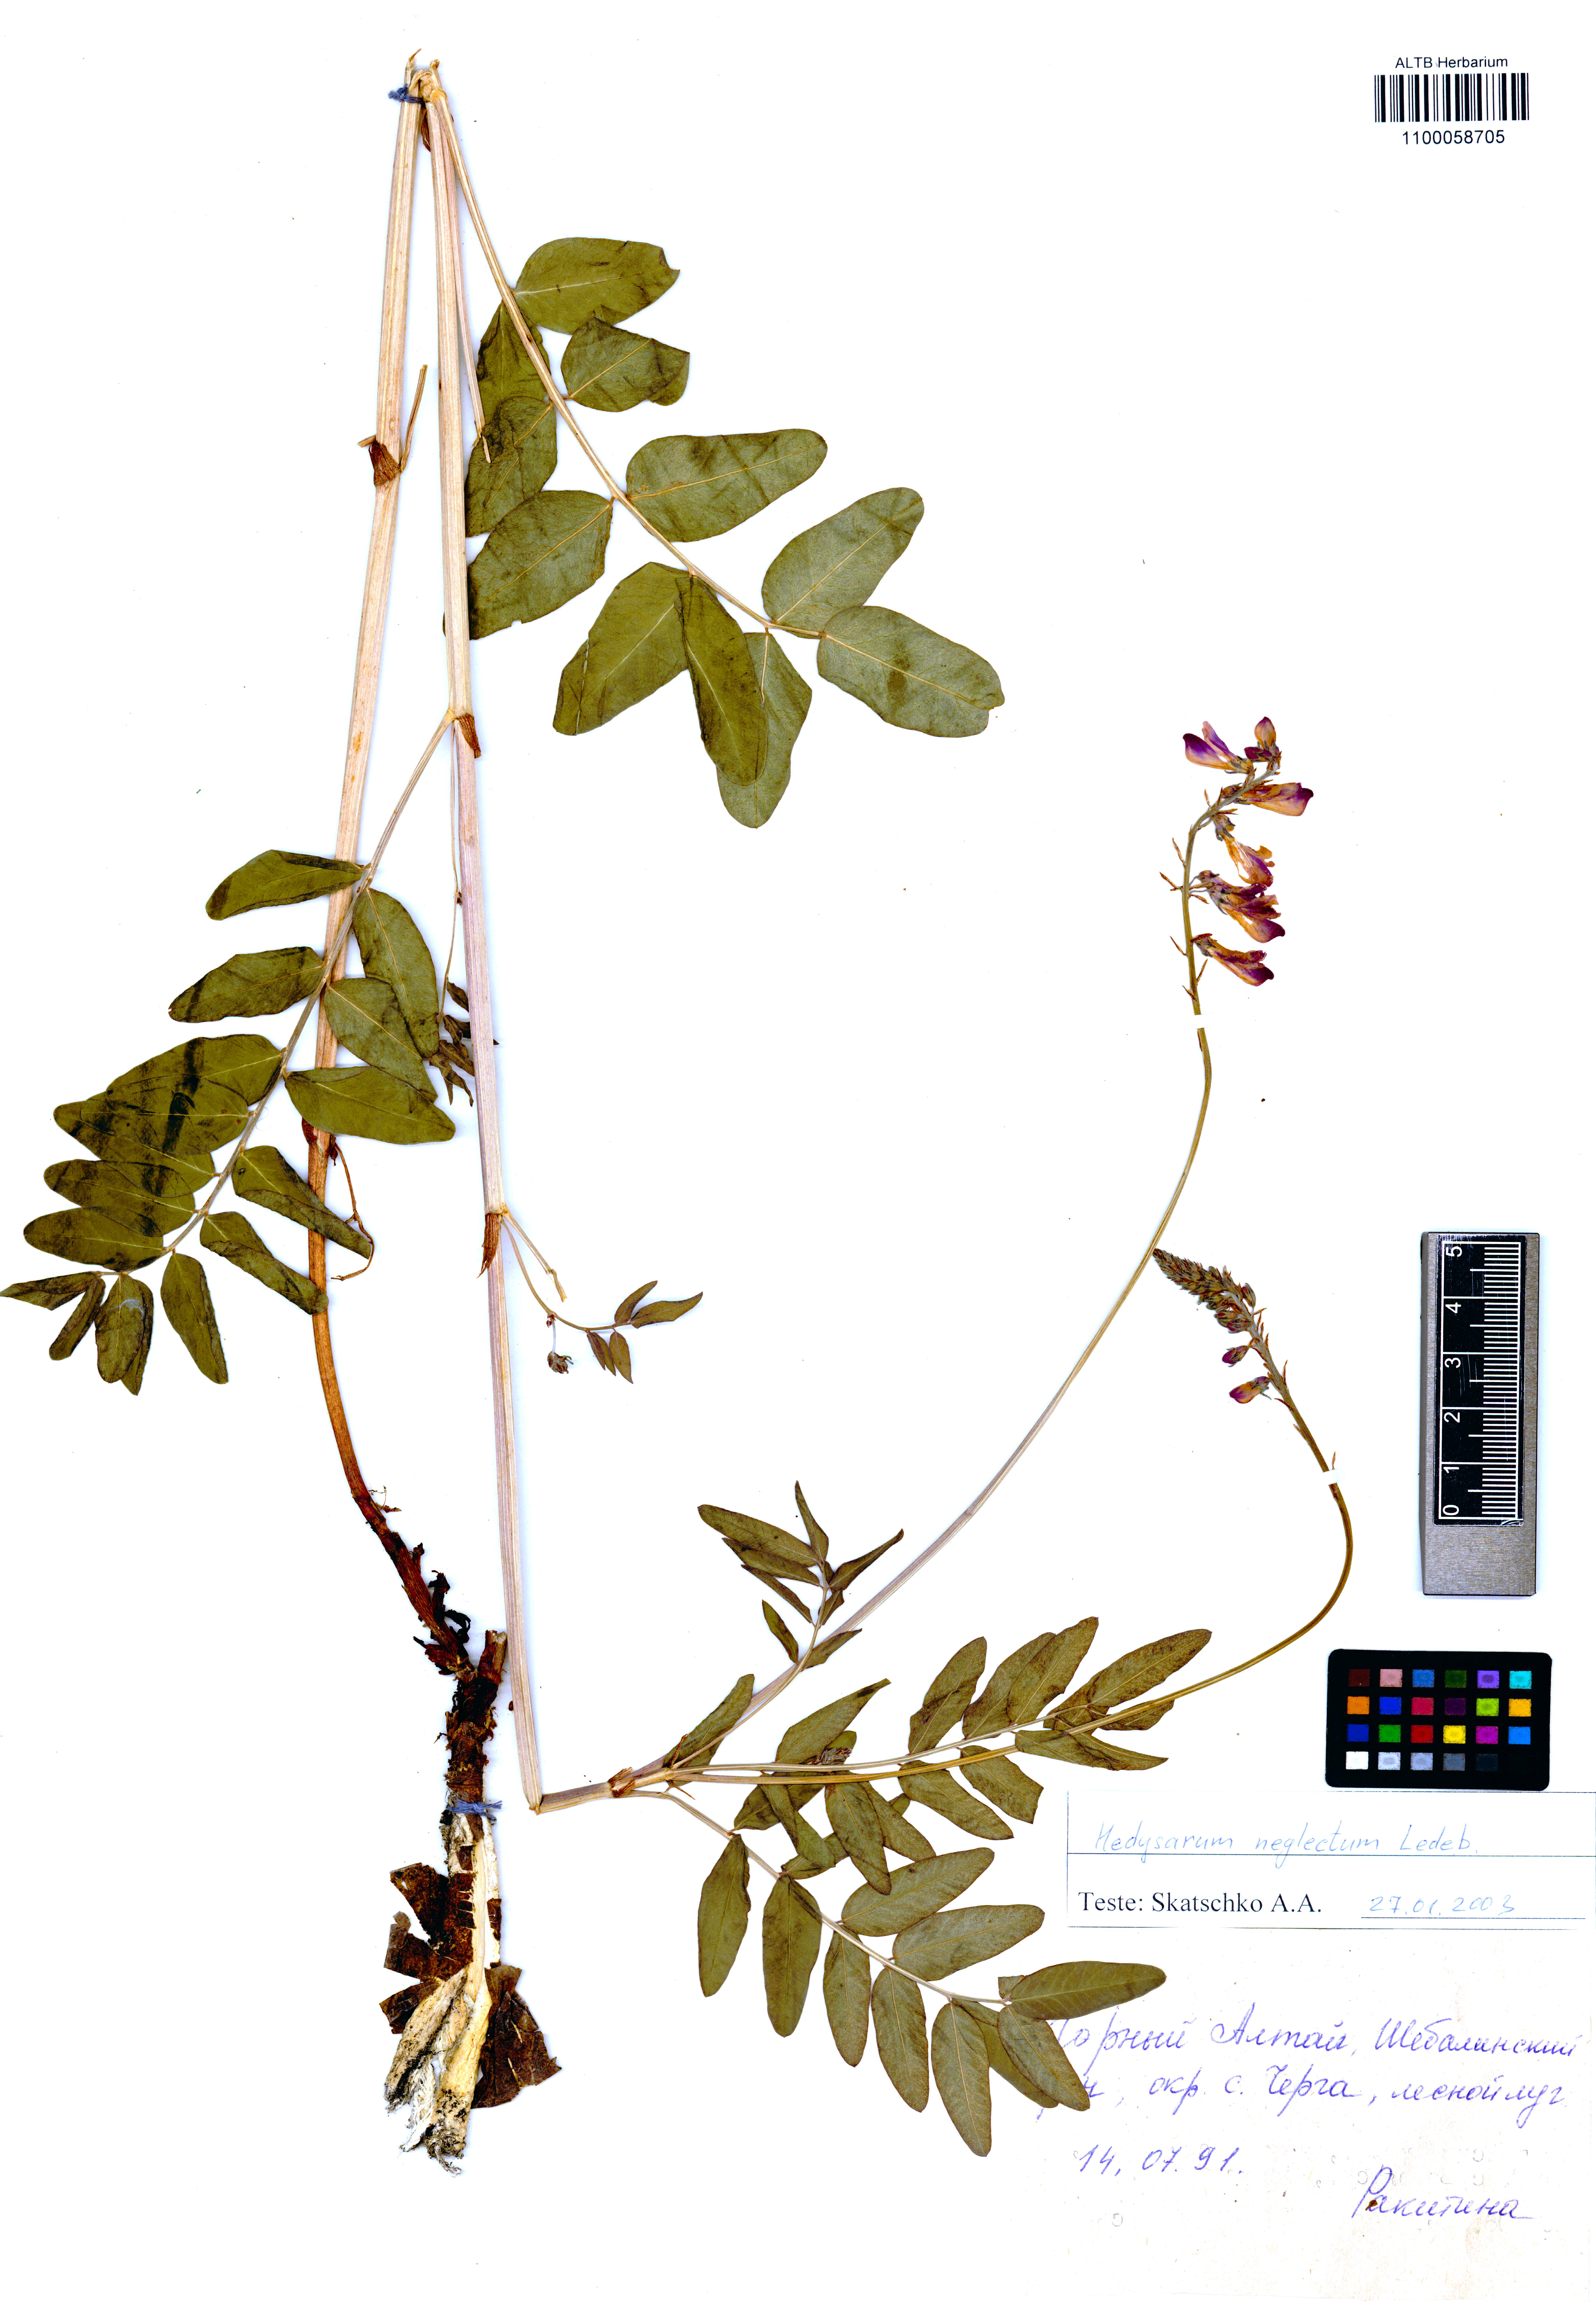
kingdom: Plantae
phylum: Tracheophyta
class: Magnoliopsida
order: Fabales
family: Fabaceae
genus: Hedysarum
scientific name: Hedysarum neglectum
